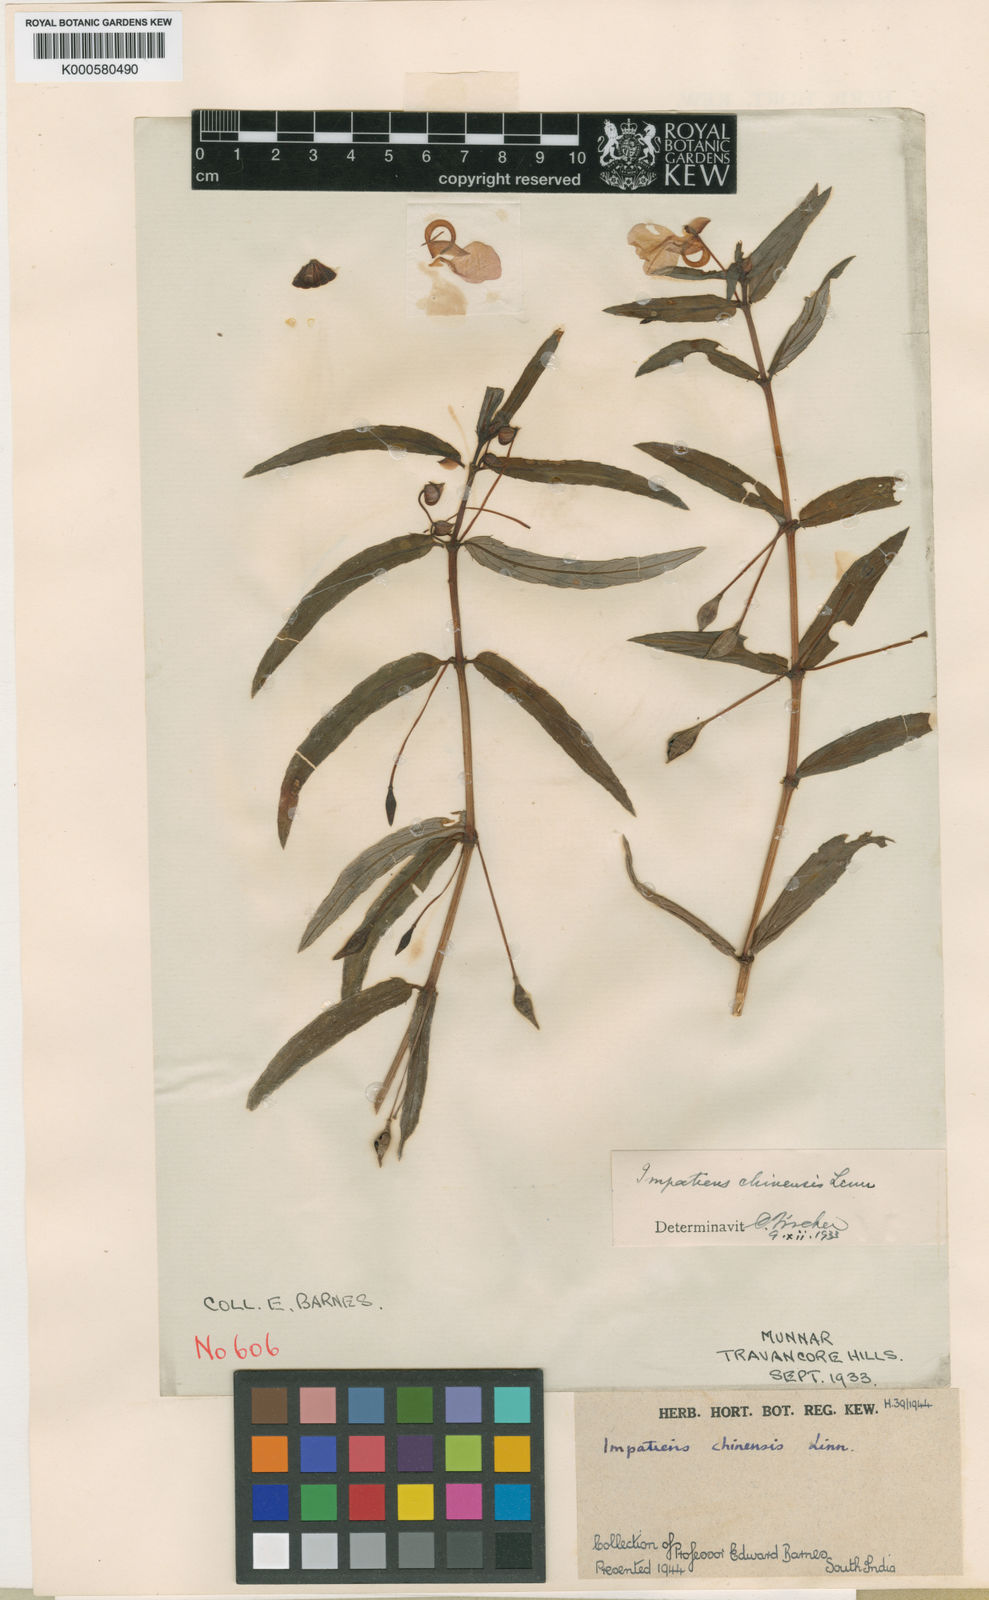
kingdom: Plantae
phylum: Tracheophyta
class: Magnoliopsida
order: Ericales
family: Balsaminaceae
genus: Impatiens
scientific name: Impatiens chinensis
